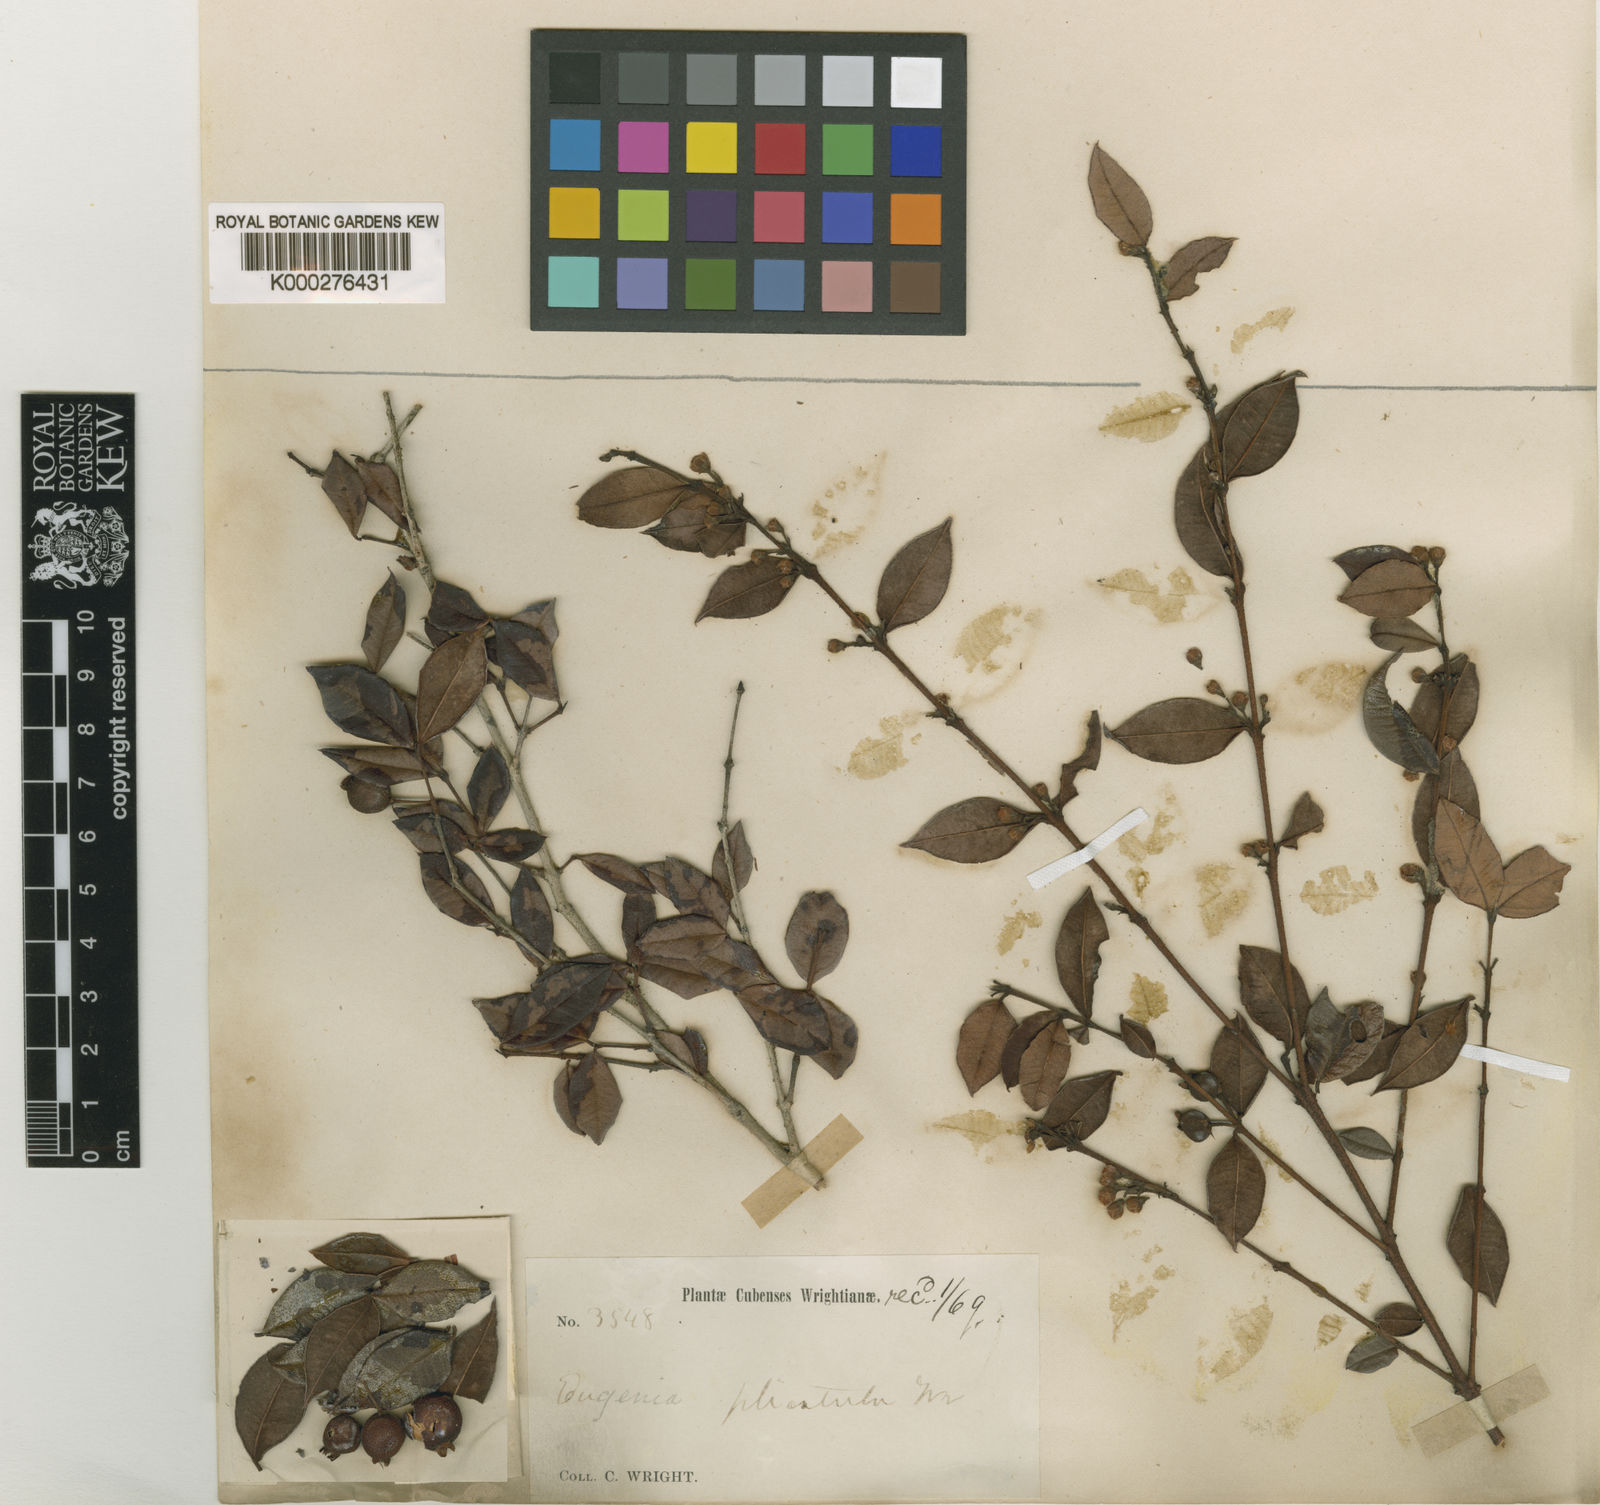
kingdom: Plantae
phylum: Tracheophyta
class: Magnoliopsida
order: Myrtales
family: Myrtaceae
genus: Eugenia
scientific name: Eugenia plicatula
